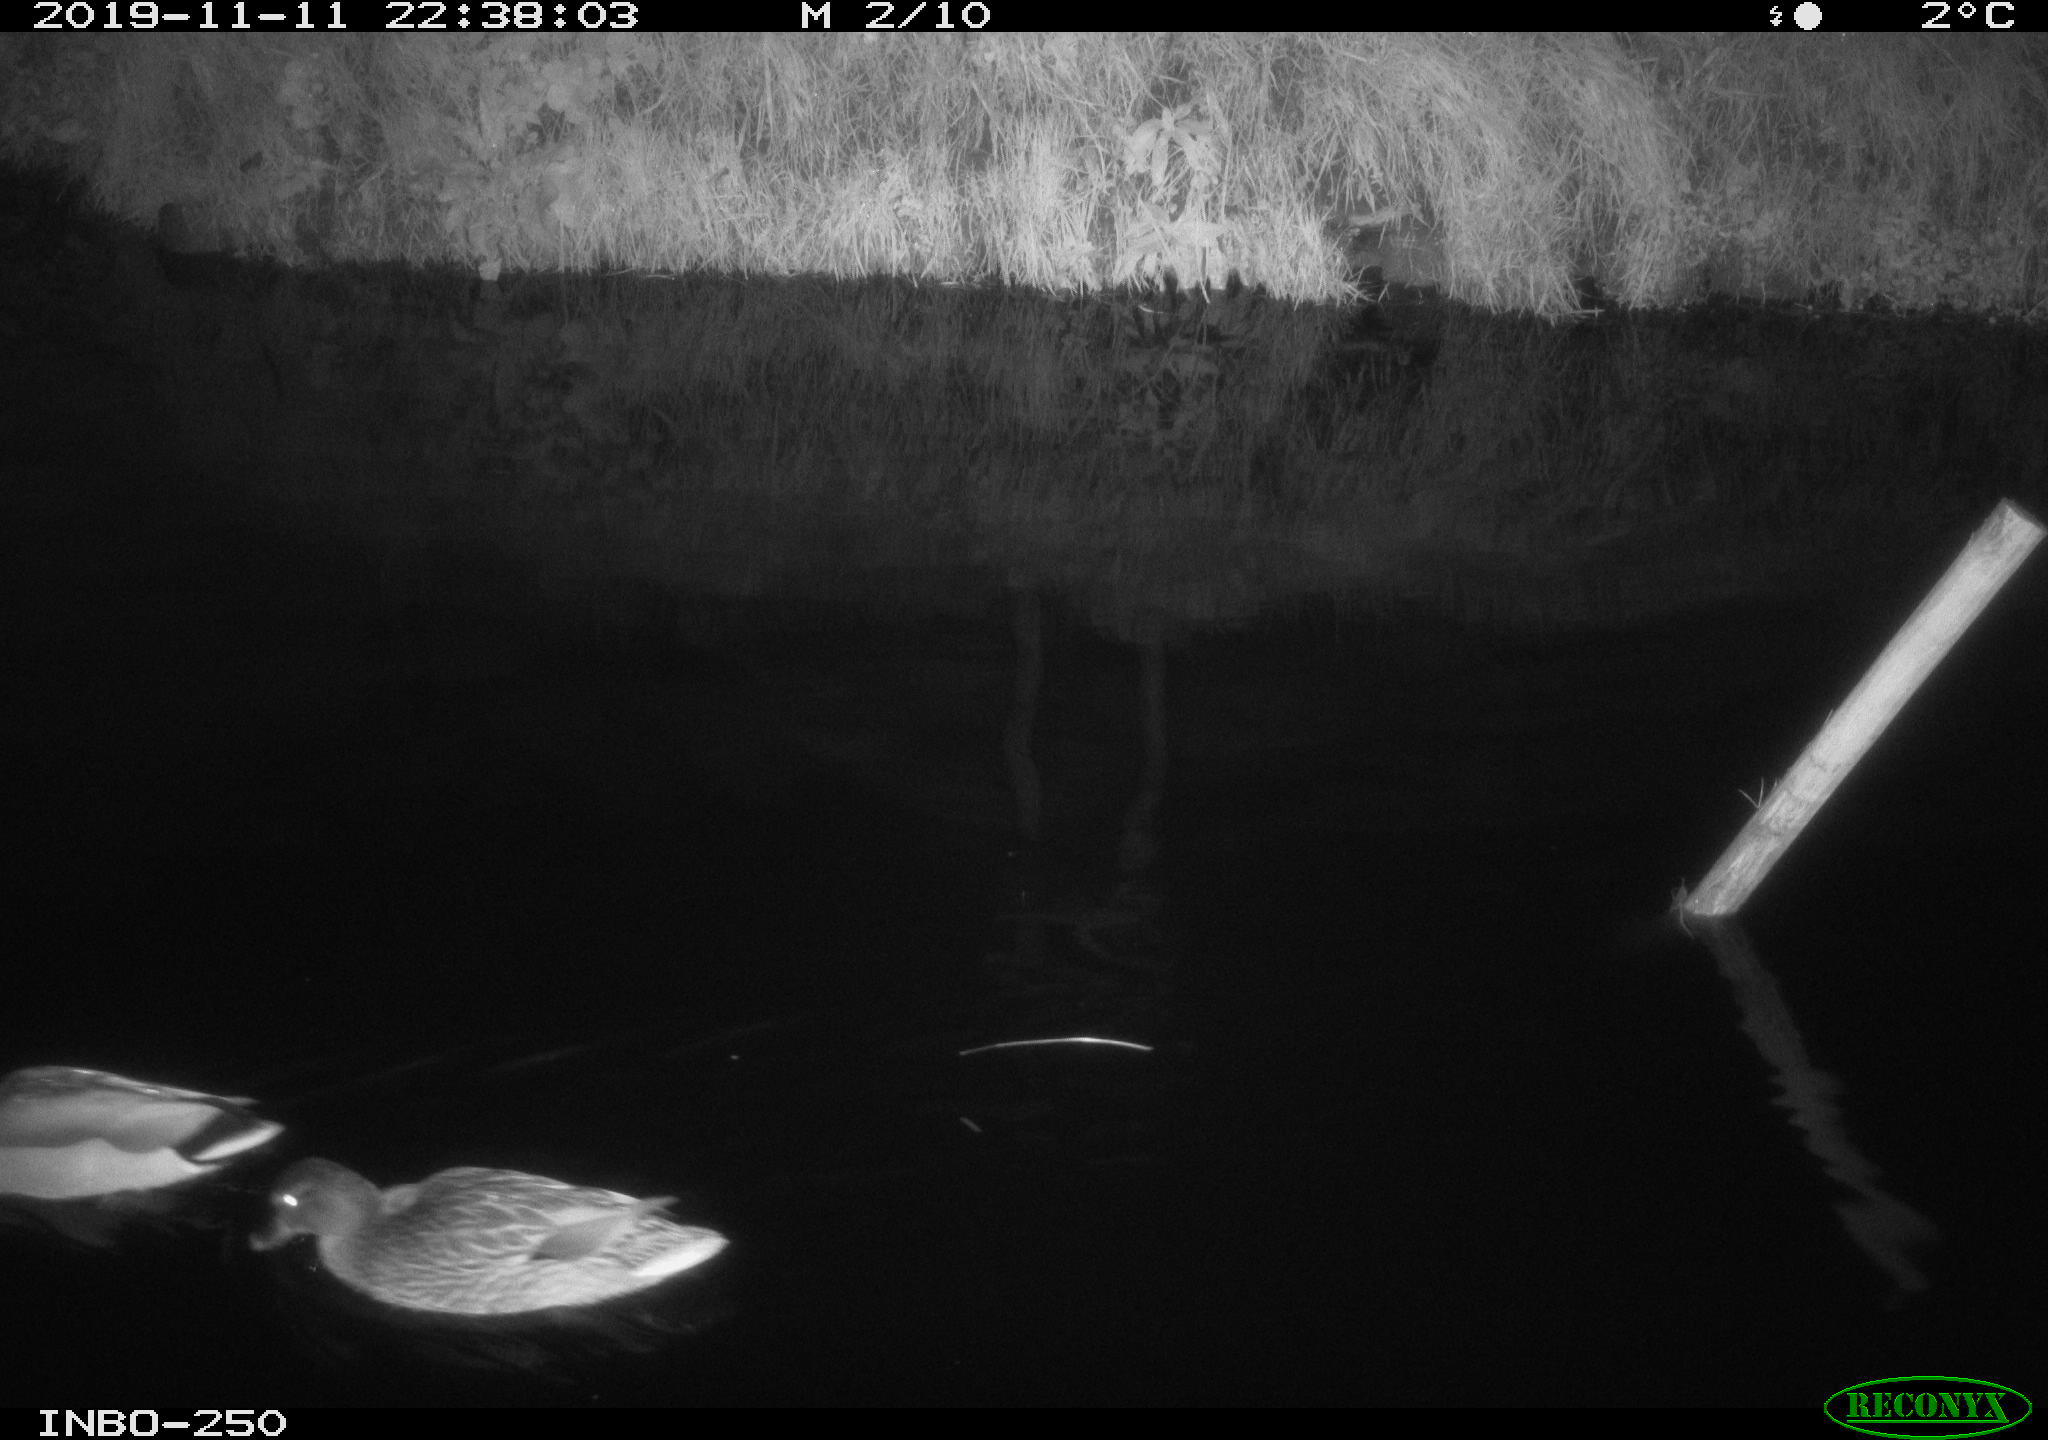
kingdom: Animalia
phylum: Chordata
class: Aves
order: Anseriformes
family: Anatidae
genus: Anas
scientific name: Anas platyrhynchos
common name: Mallard
